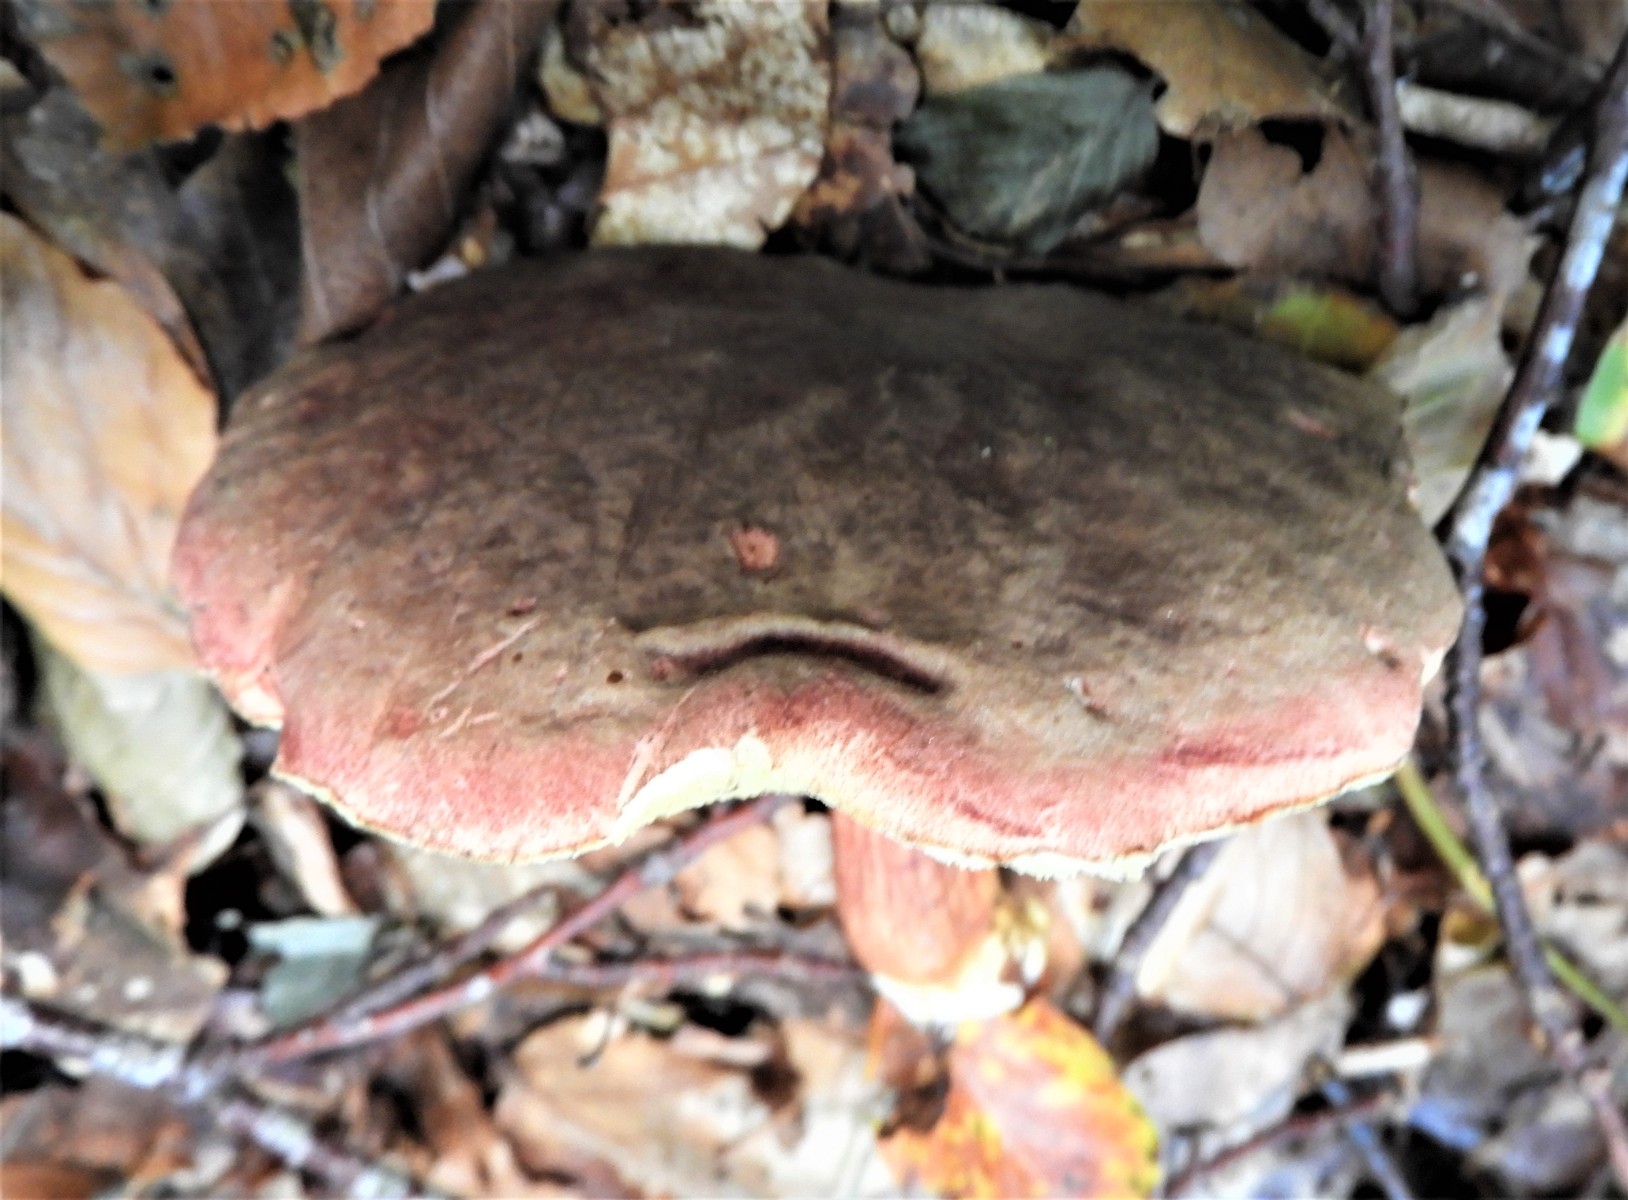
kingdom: Fungi
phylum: Basidiomycota
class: Agaricomycetes
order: Boletales
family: Boletaceae
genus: Xerocomellus
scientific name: Xerocomellus pruinatus
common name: dugget rørhat
